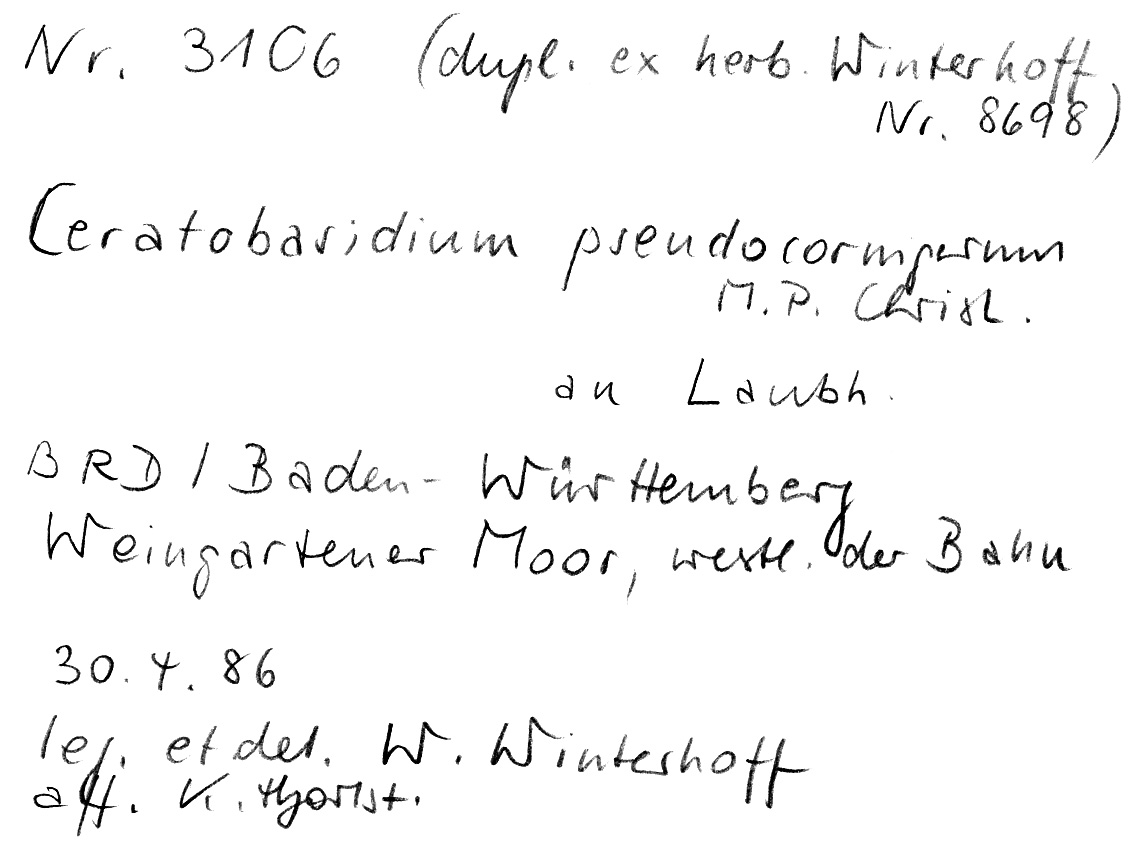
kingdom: Fungi
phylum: Basidiomycota
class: Agaricomycetes
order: Cantharellales
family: Ceratobasidiaceae
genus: Rhizoctonia
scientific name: Rhizoctonia pseudocornigera
